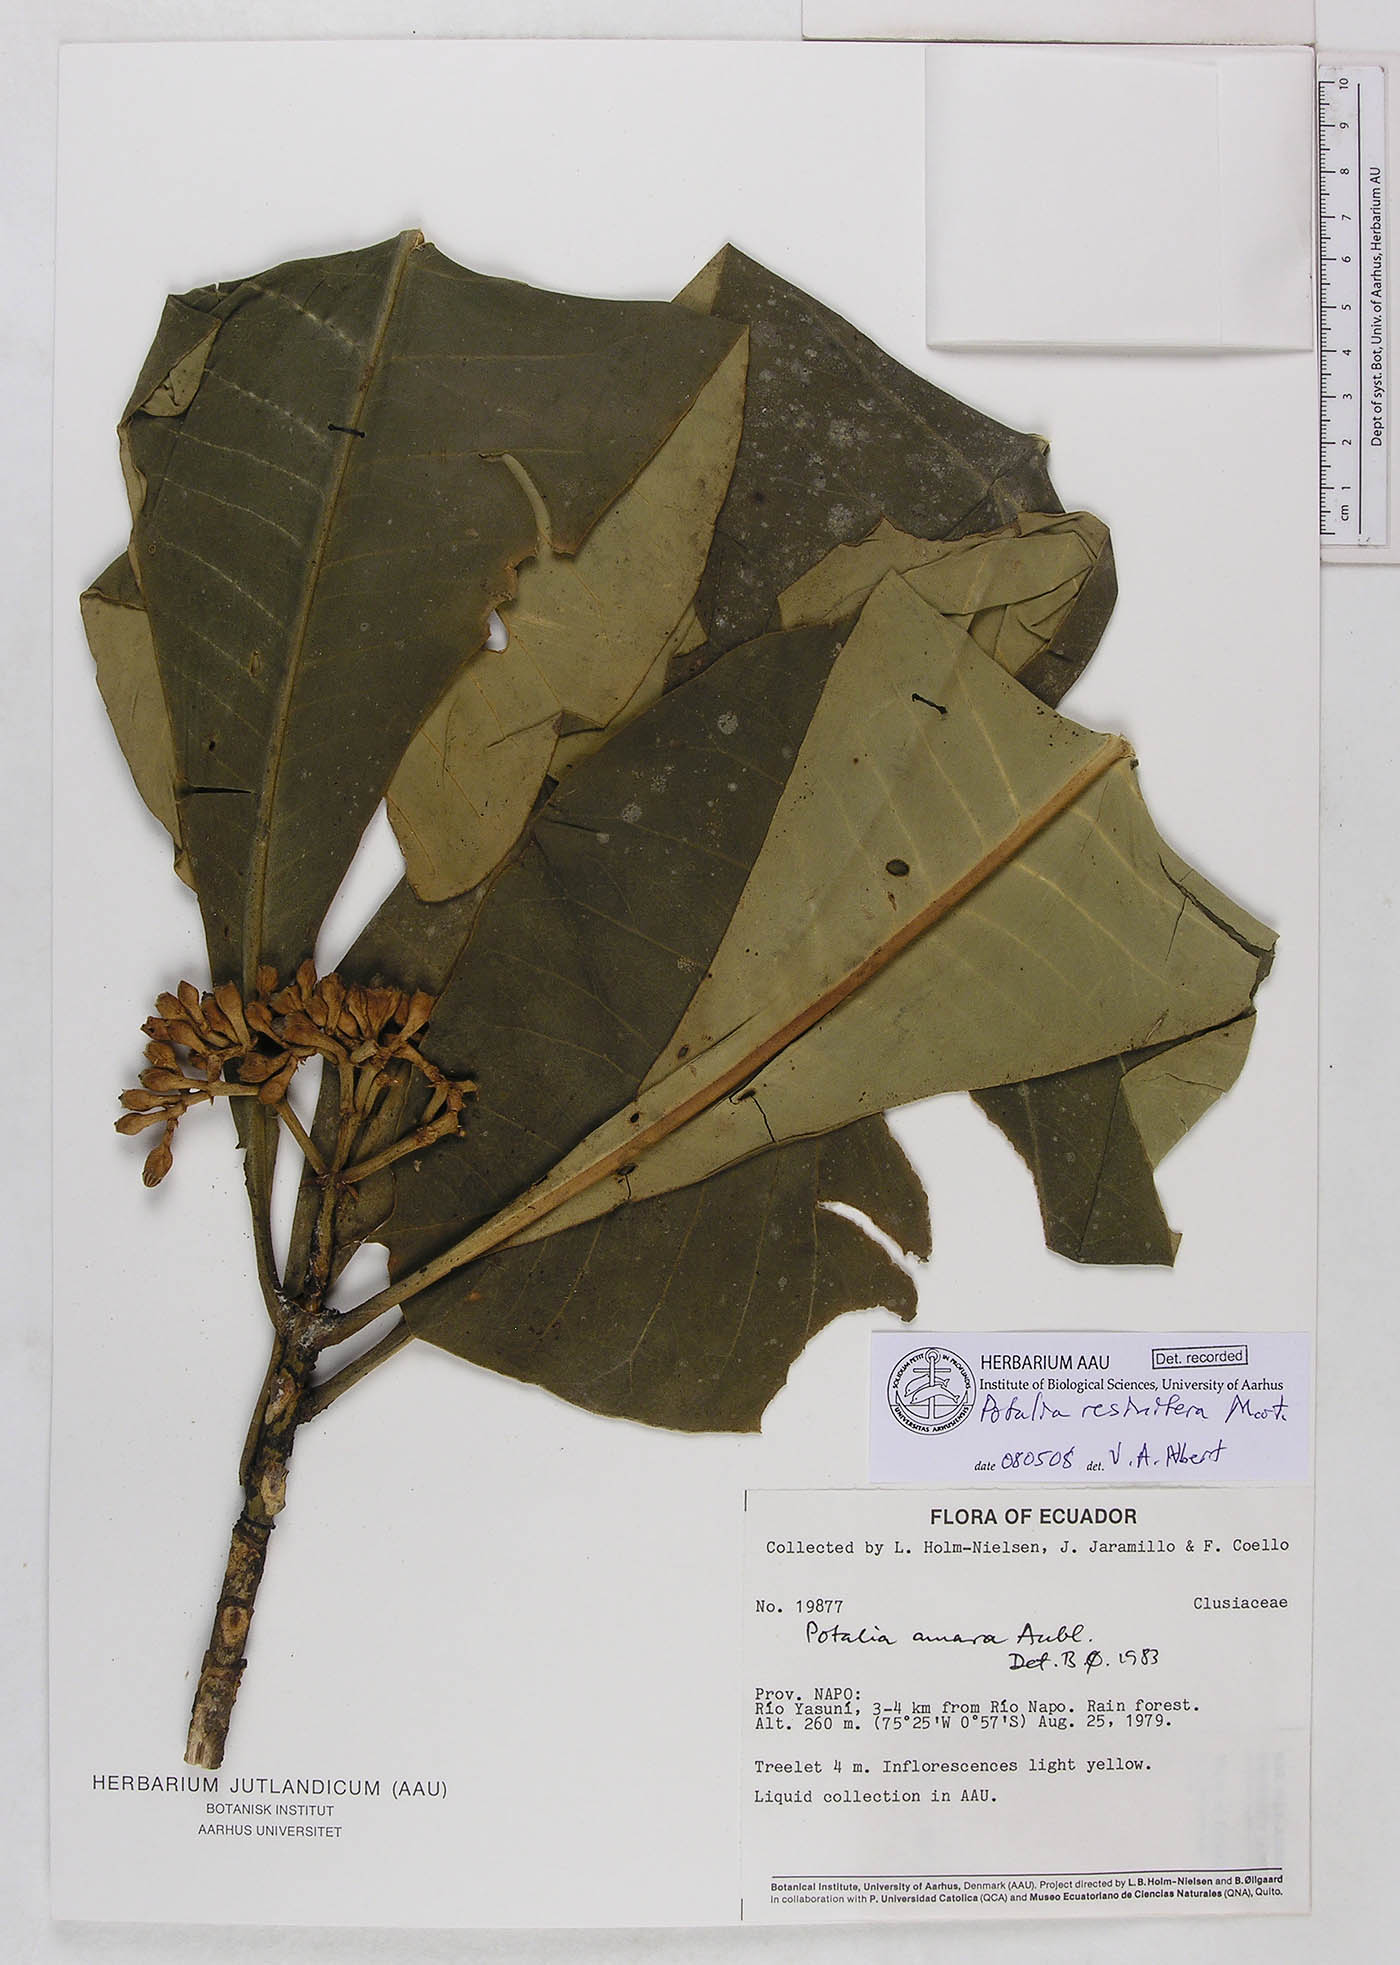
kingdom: Plantae
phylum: Tracheophyta
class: Magnoliopsida
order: Gentianales
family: Gentianaceae
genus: Potalia
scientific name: Potalia resinifera
